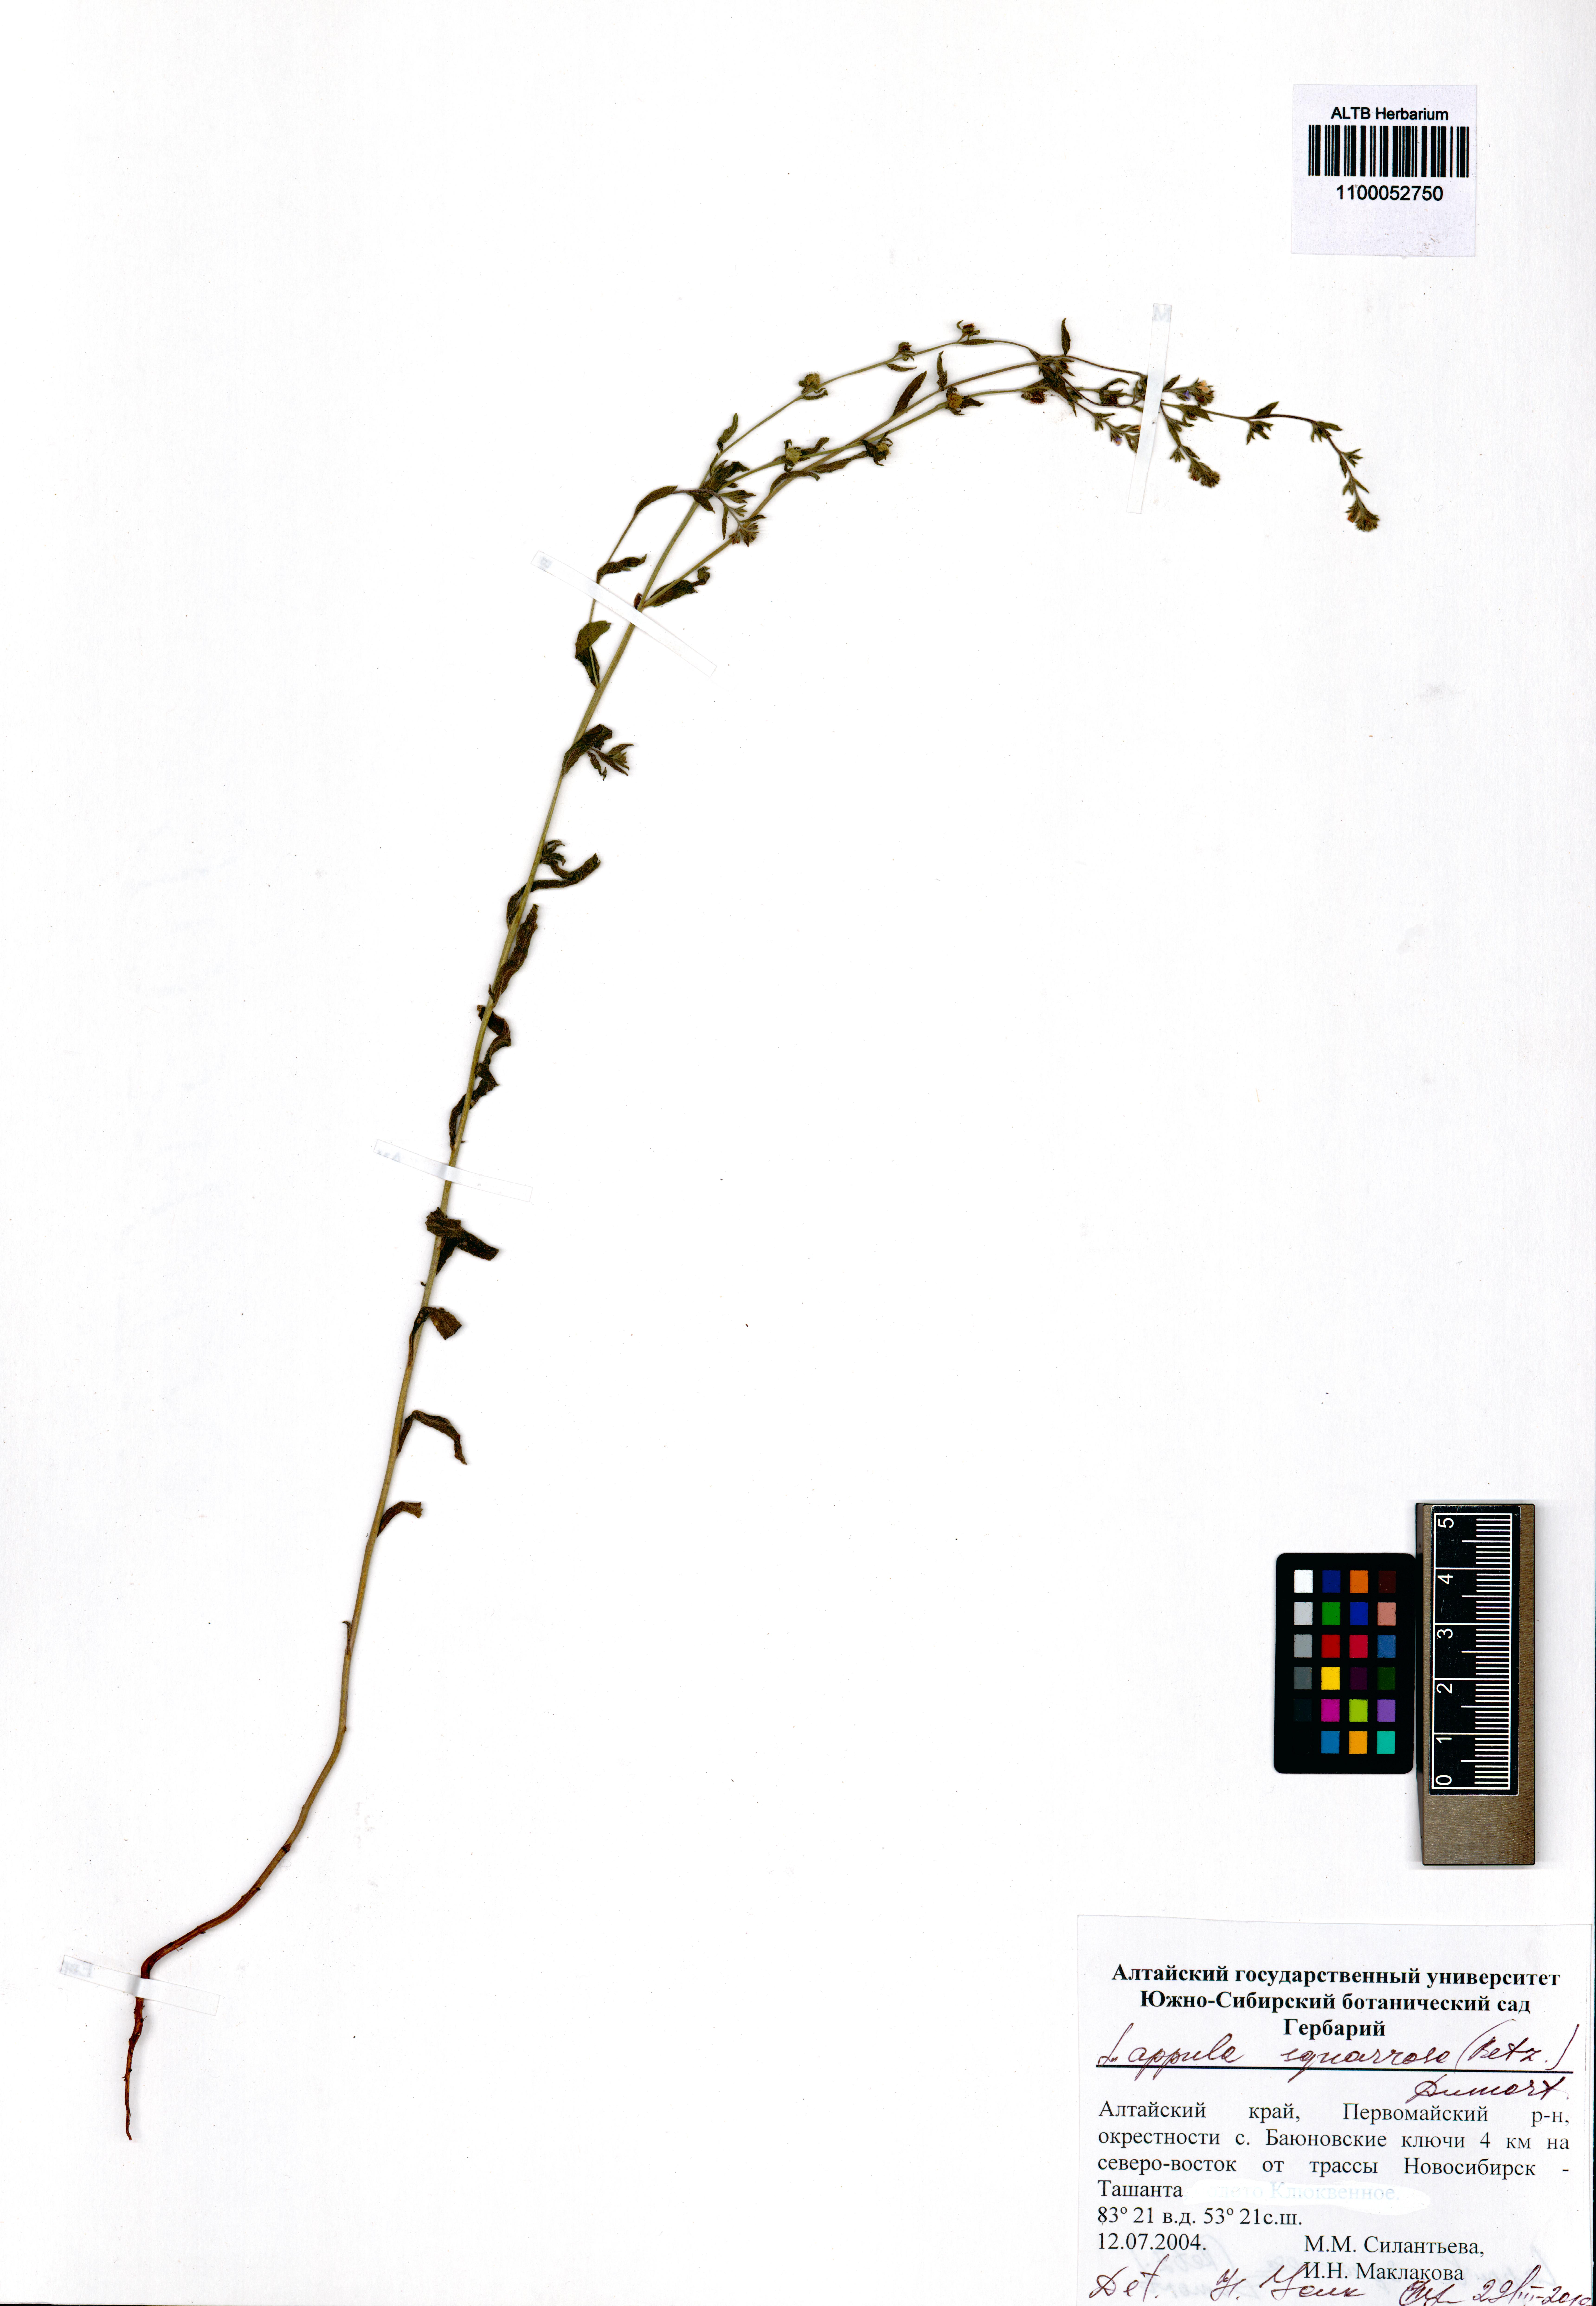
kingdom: Plantae
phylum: Tracheophyta
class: Magnoliopsida
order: Boraginales
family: Boraginaceae
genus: Lappula
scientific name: Lappula squarrosa
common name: European stickseed
